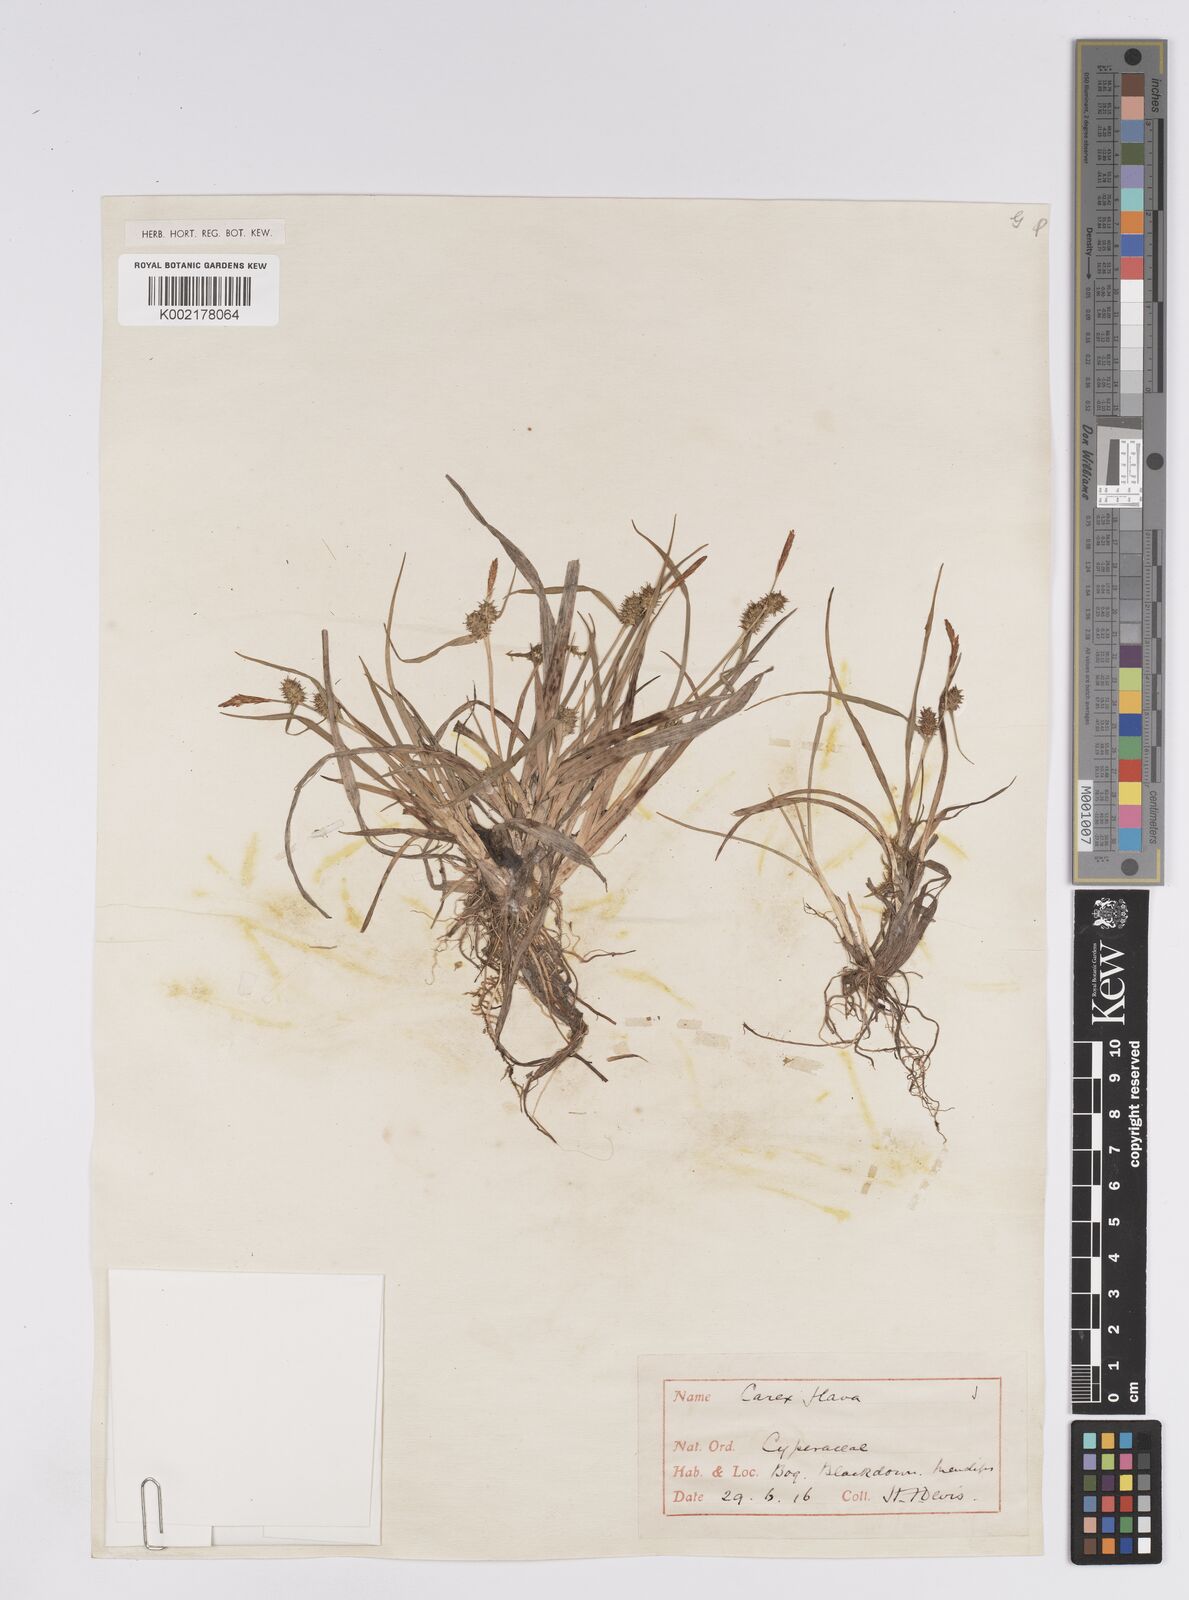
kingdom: Plantae
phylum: Tracheophyta
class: Liliopsida
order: Poales
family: Cyperaceae
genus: Carex
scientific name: Carex demissa
